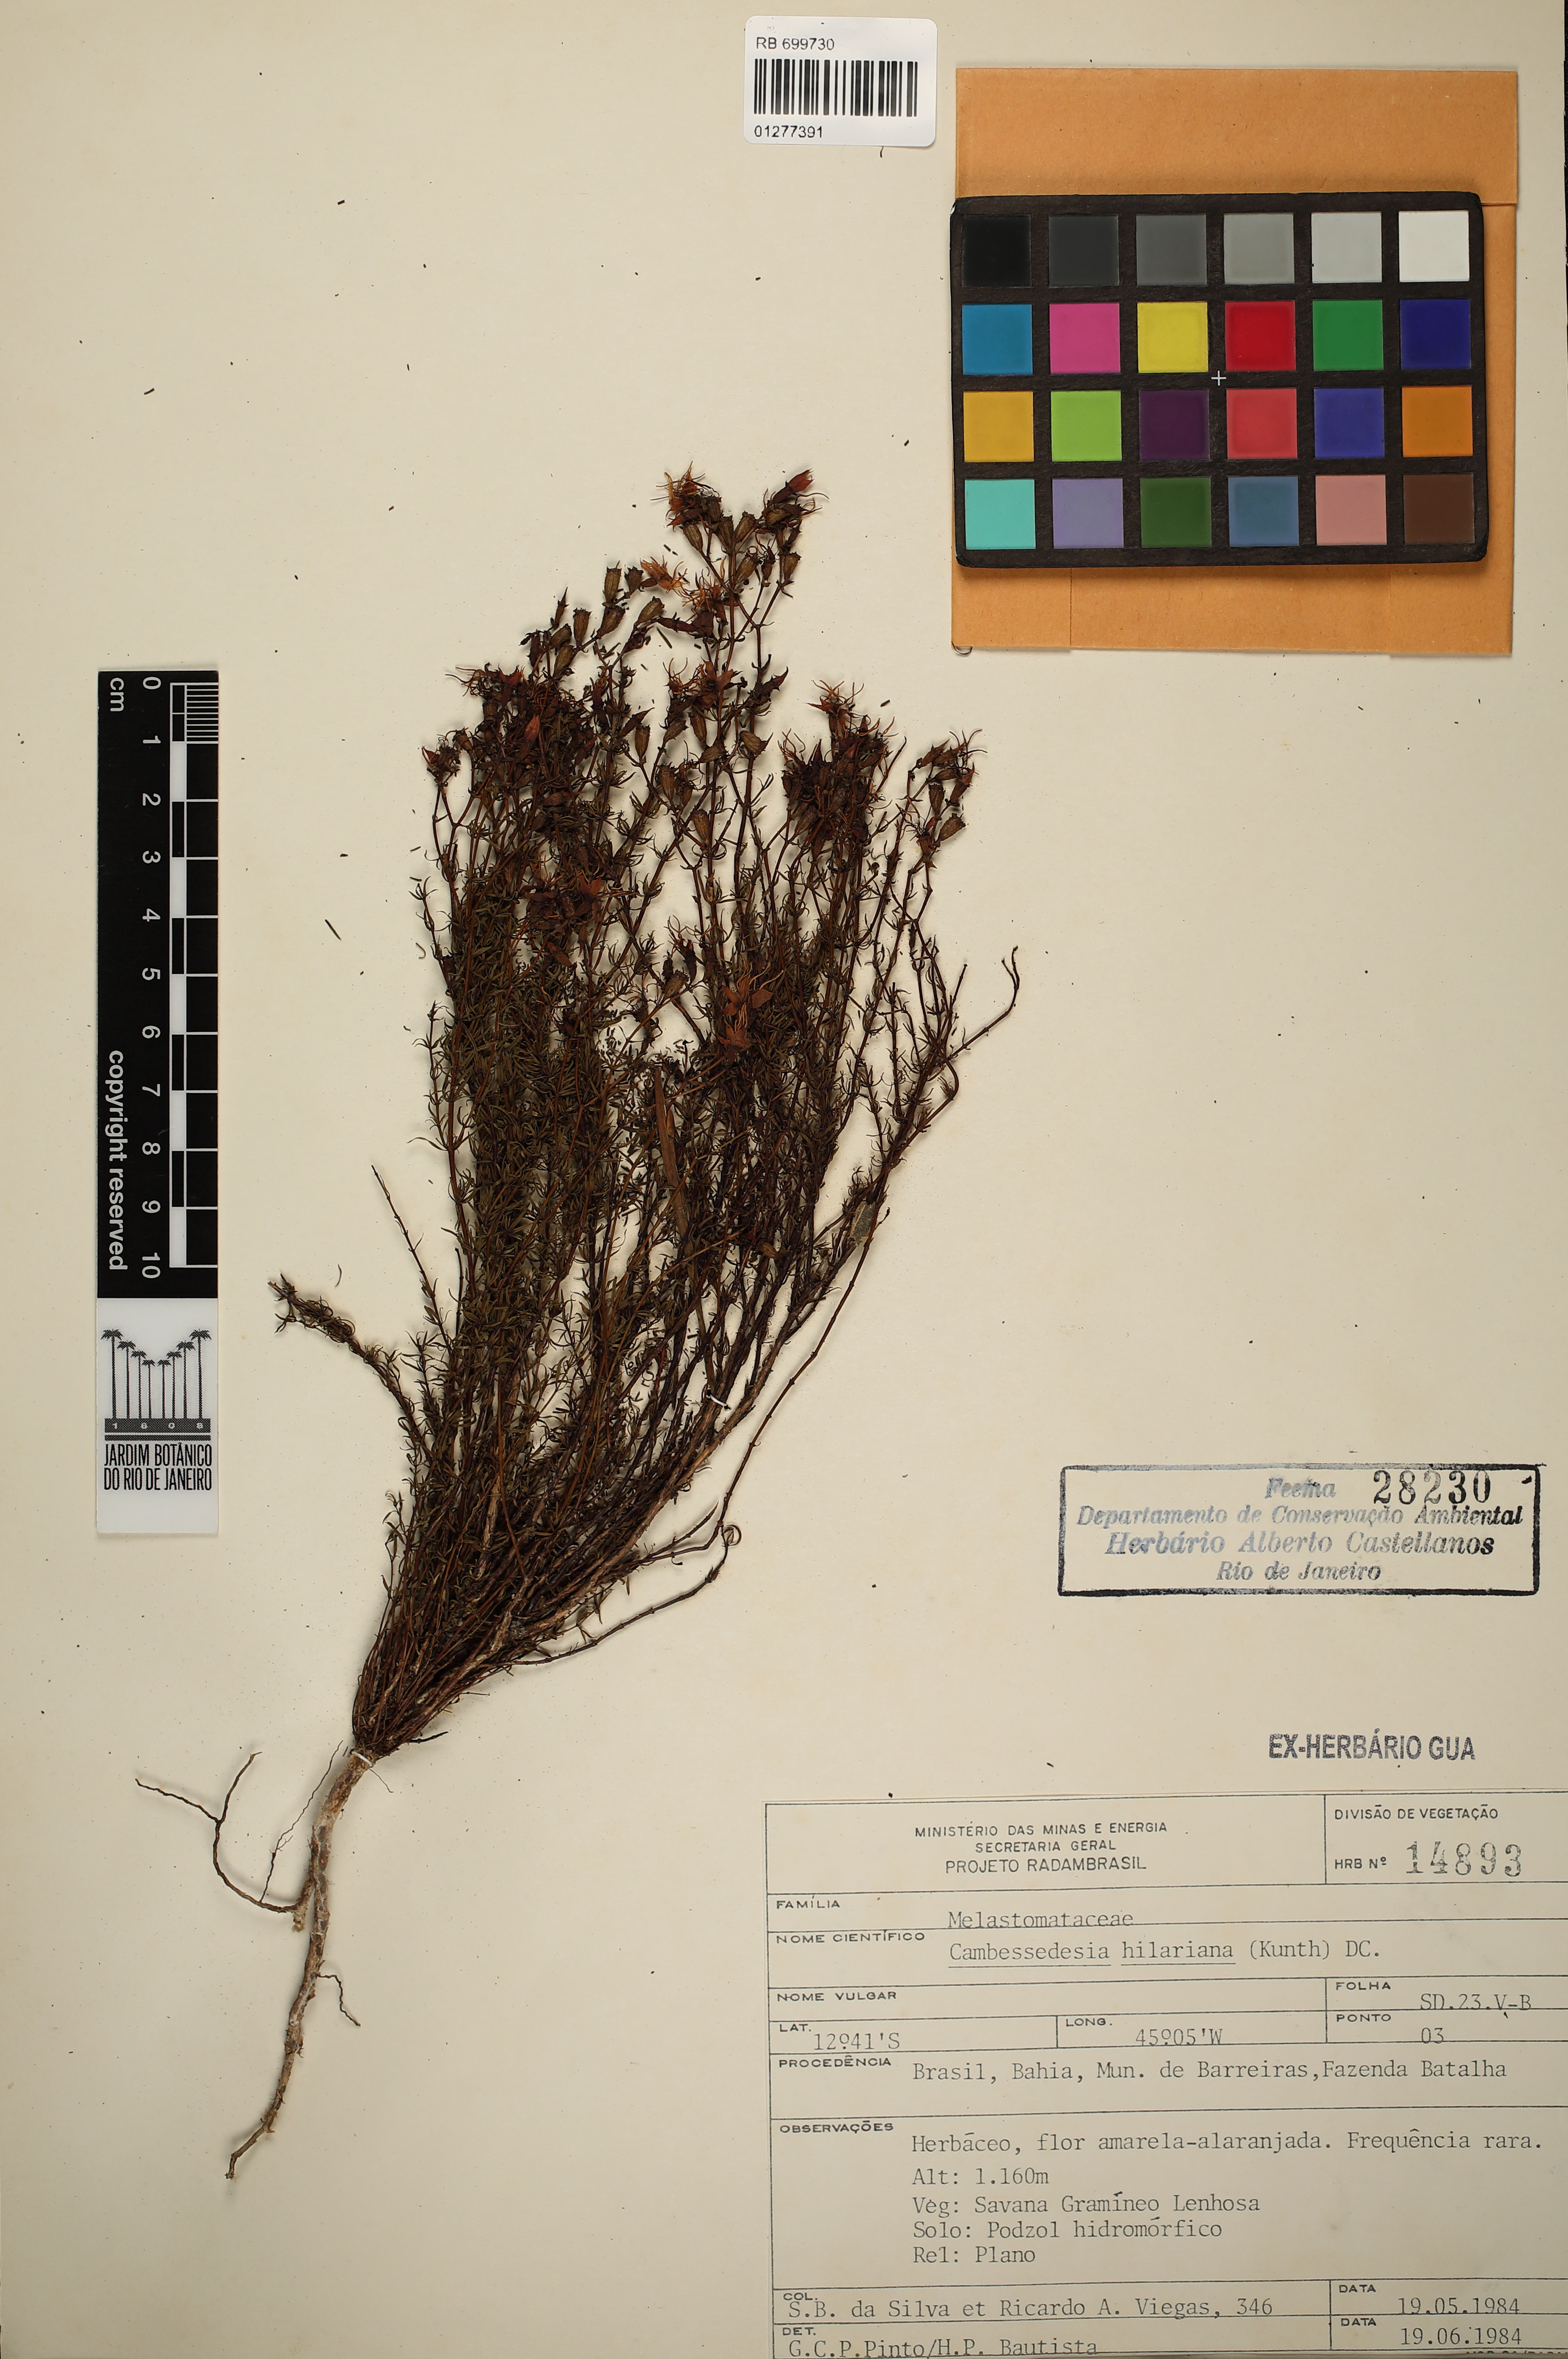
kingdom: Plantae
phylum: Tracheophyta
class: Magnoliopsida
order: Myrtales
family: Melastomataceae
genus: Cambessedesia
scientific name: Cambessedesia hilariana
